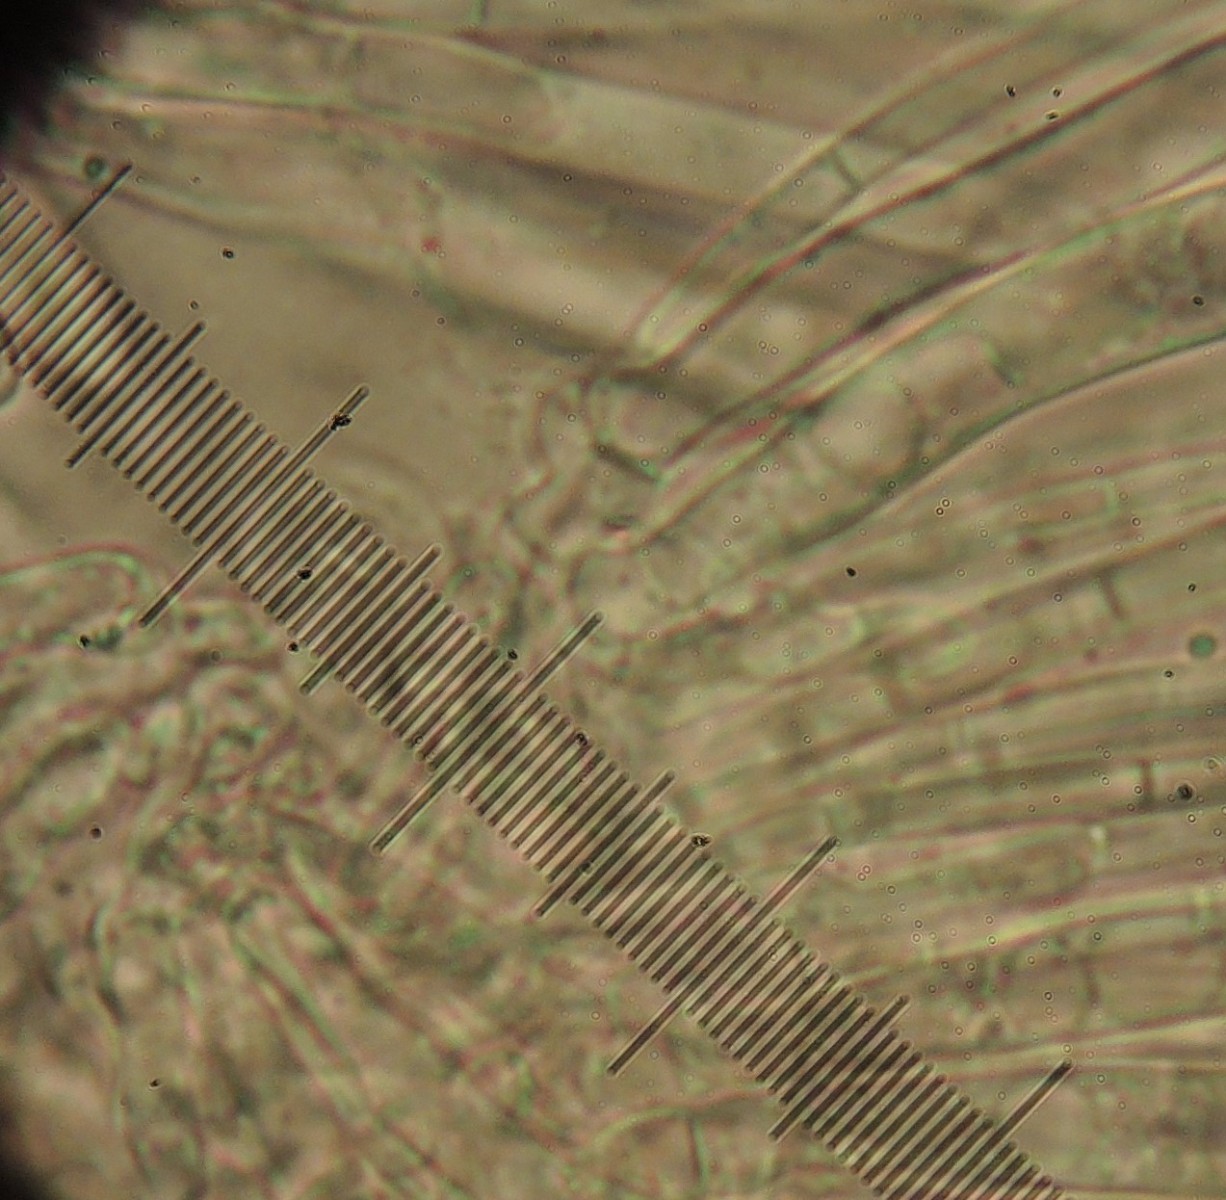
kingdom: Fungi
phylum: Ascomycota
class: Leotiomycetes
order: Helotiales
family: Lachnaceae
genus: Lachnum
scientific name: Lachnum
